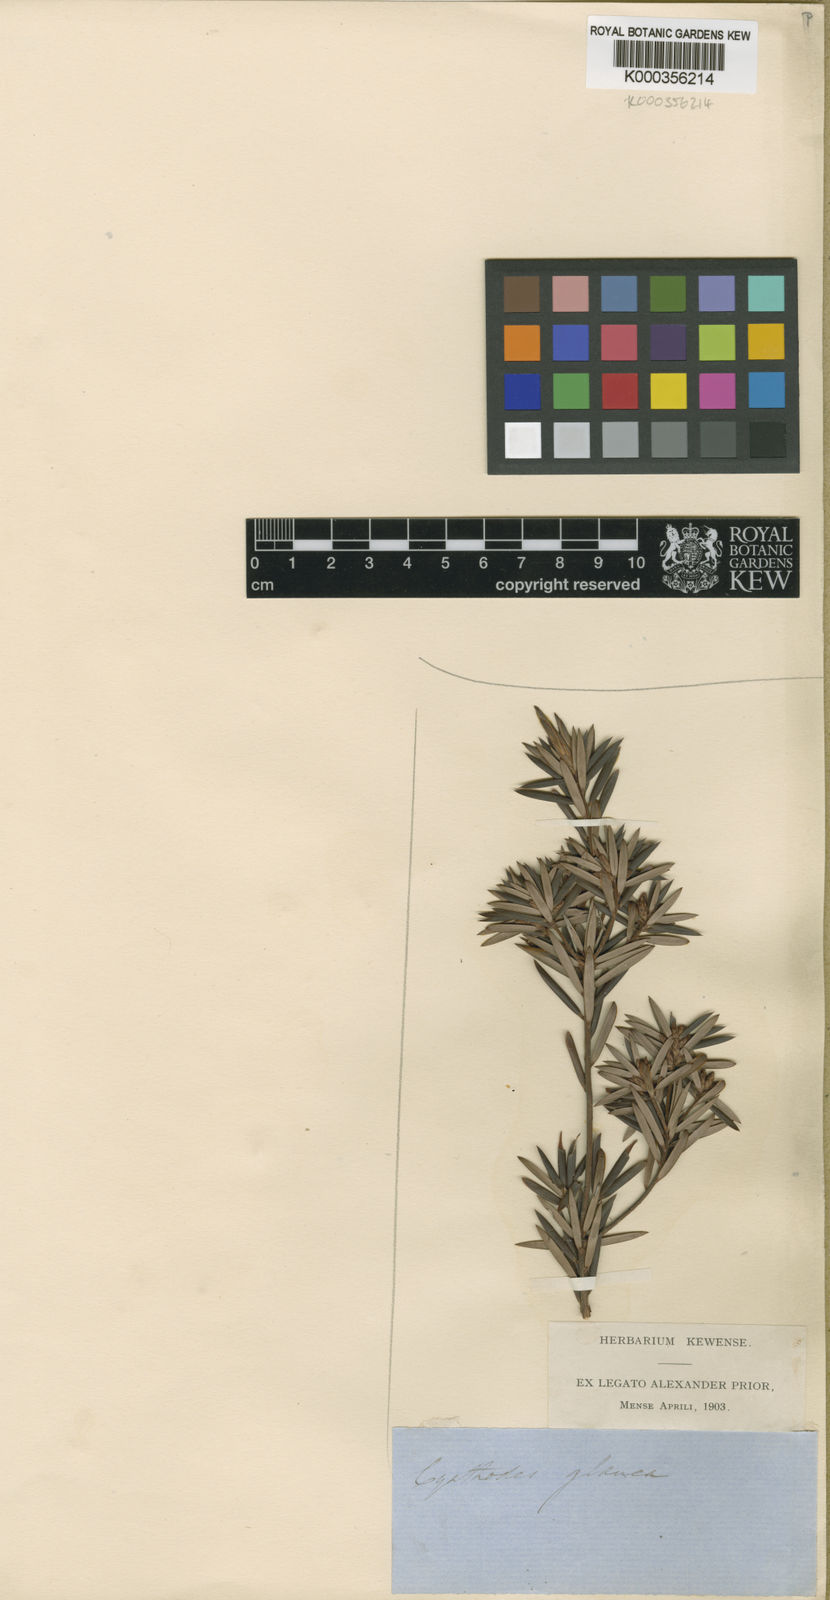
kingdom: Plantae
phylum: Tracheophyta
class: Magnoliopsida
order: Ericales
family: Ericaceae
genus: Cyathodes
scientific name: Cyathodes glauca
